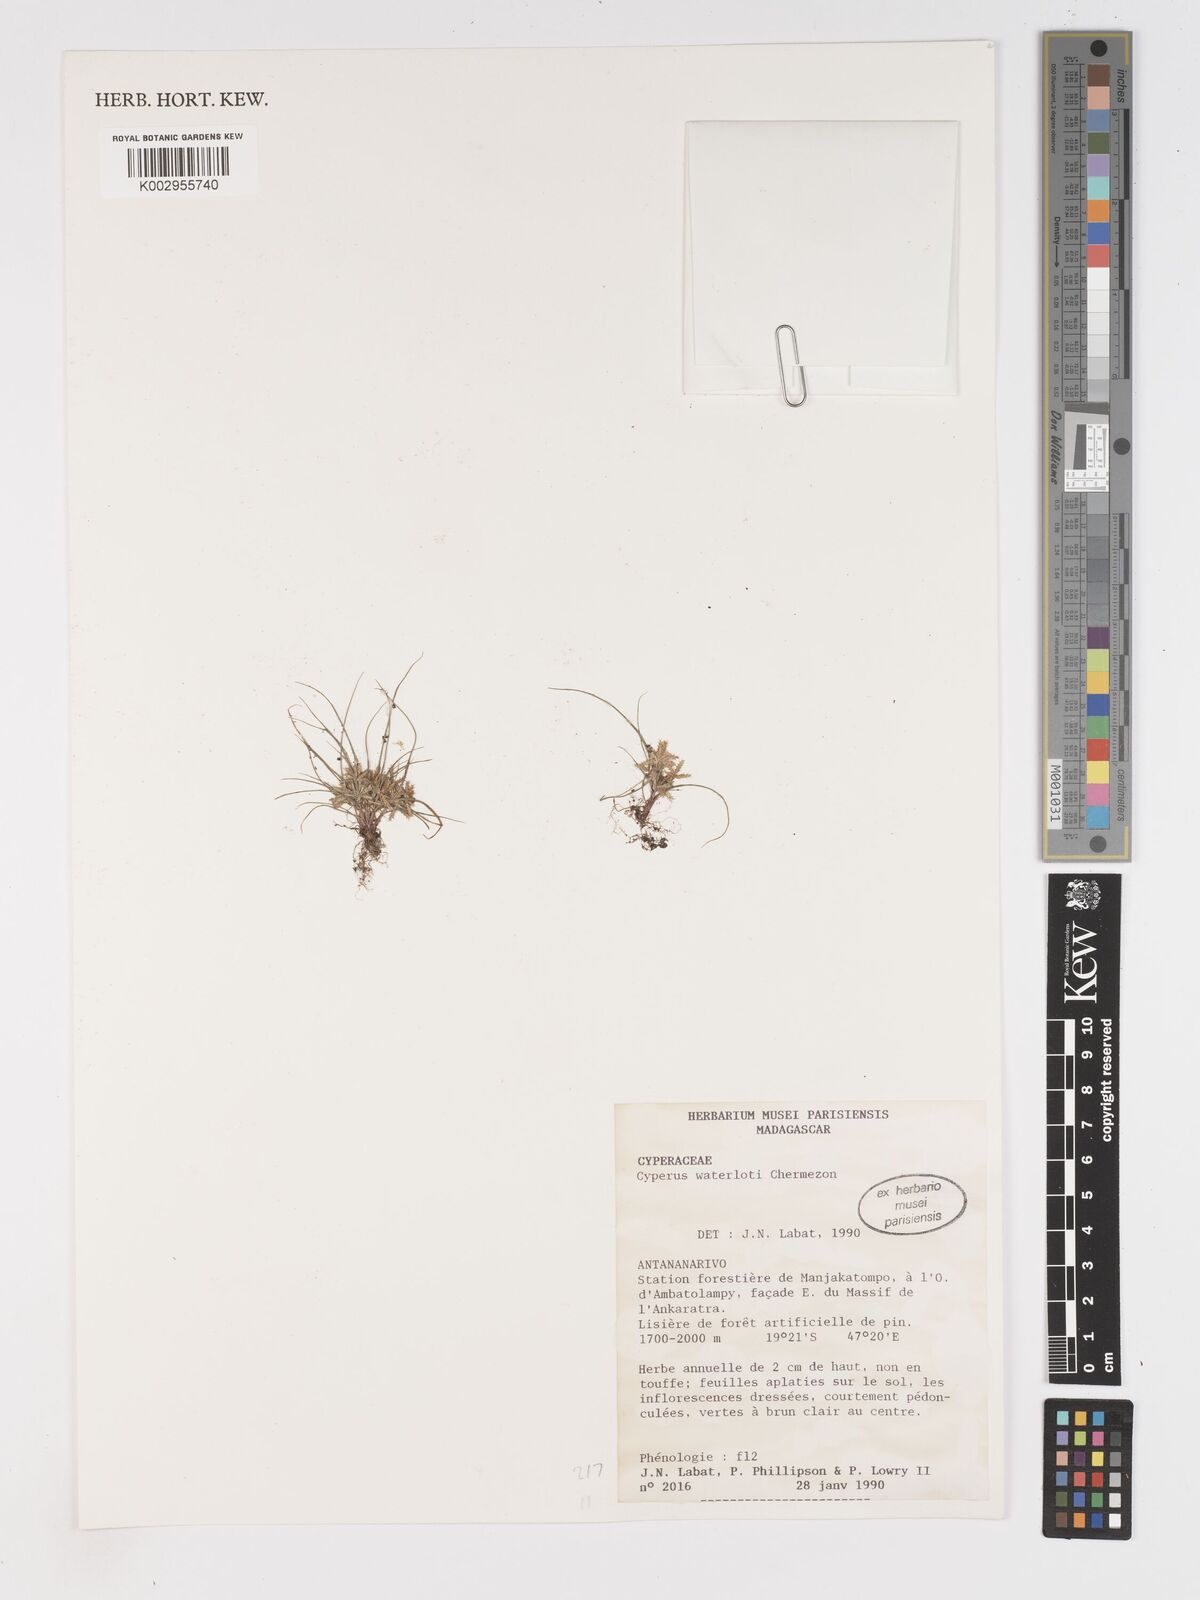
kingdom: Plantae
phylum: Tracheophyta
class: Liliopsida
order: Poales
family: Cyperaceae
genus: Cyperus
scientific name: Cyperus cuspidatus
